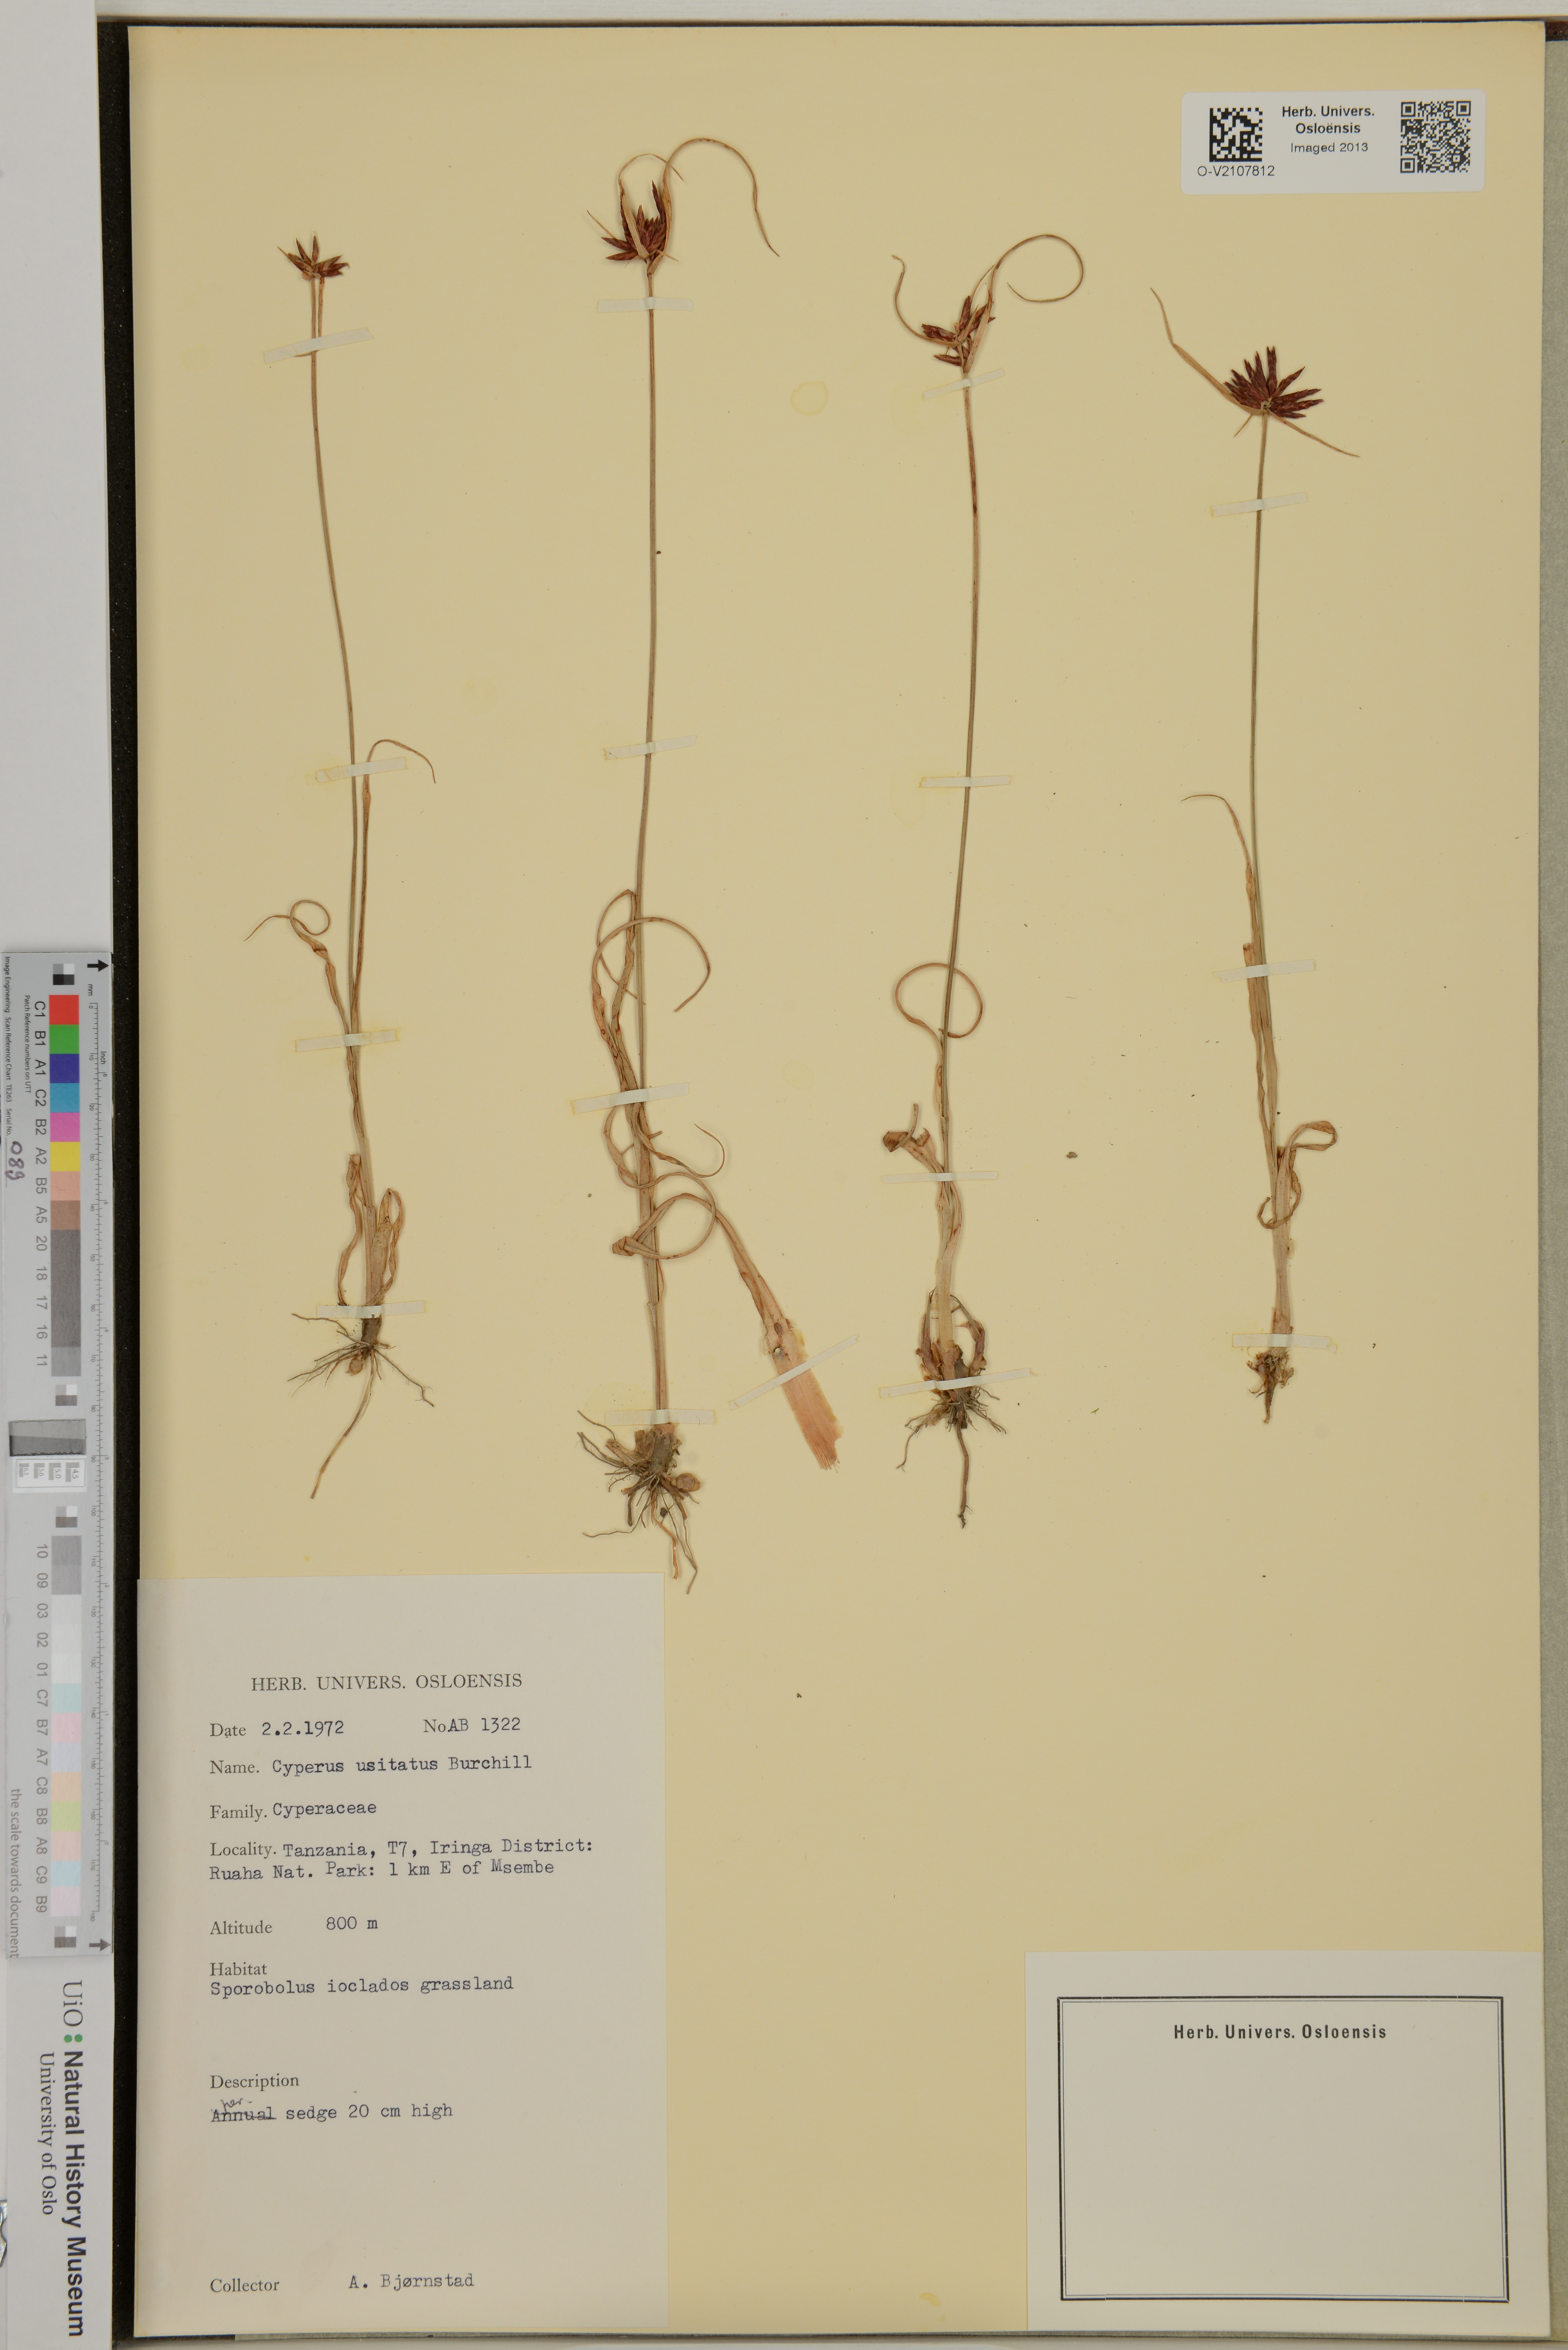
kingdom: Plantae
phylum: Tracheophyta
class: Liliopsida
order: Poales
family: Cyperaceae
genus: Cyperus
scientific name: Cyperus usitatus
